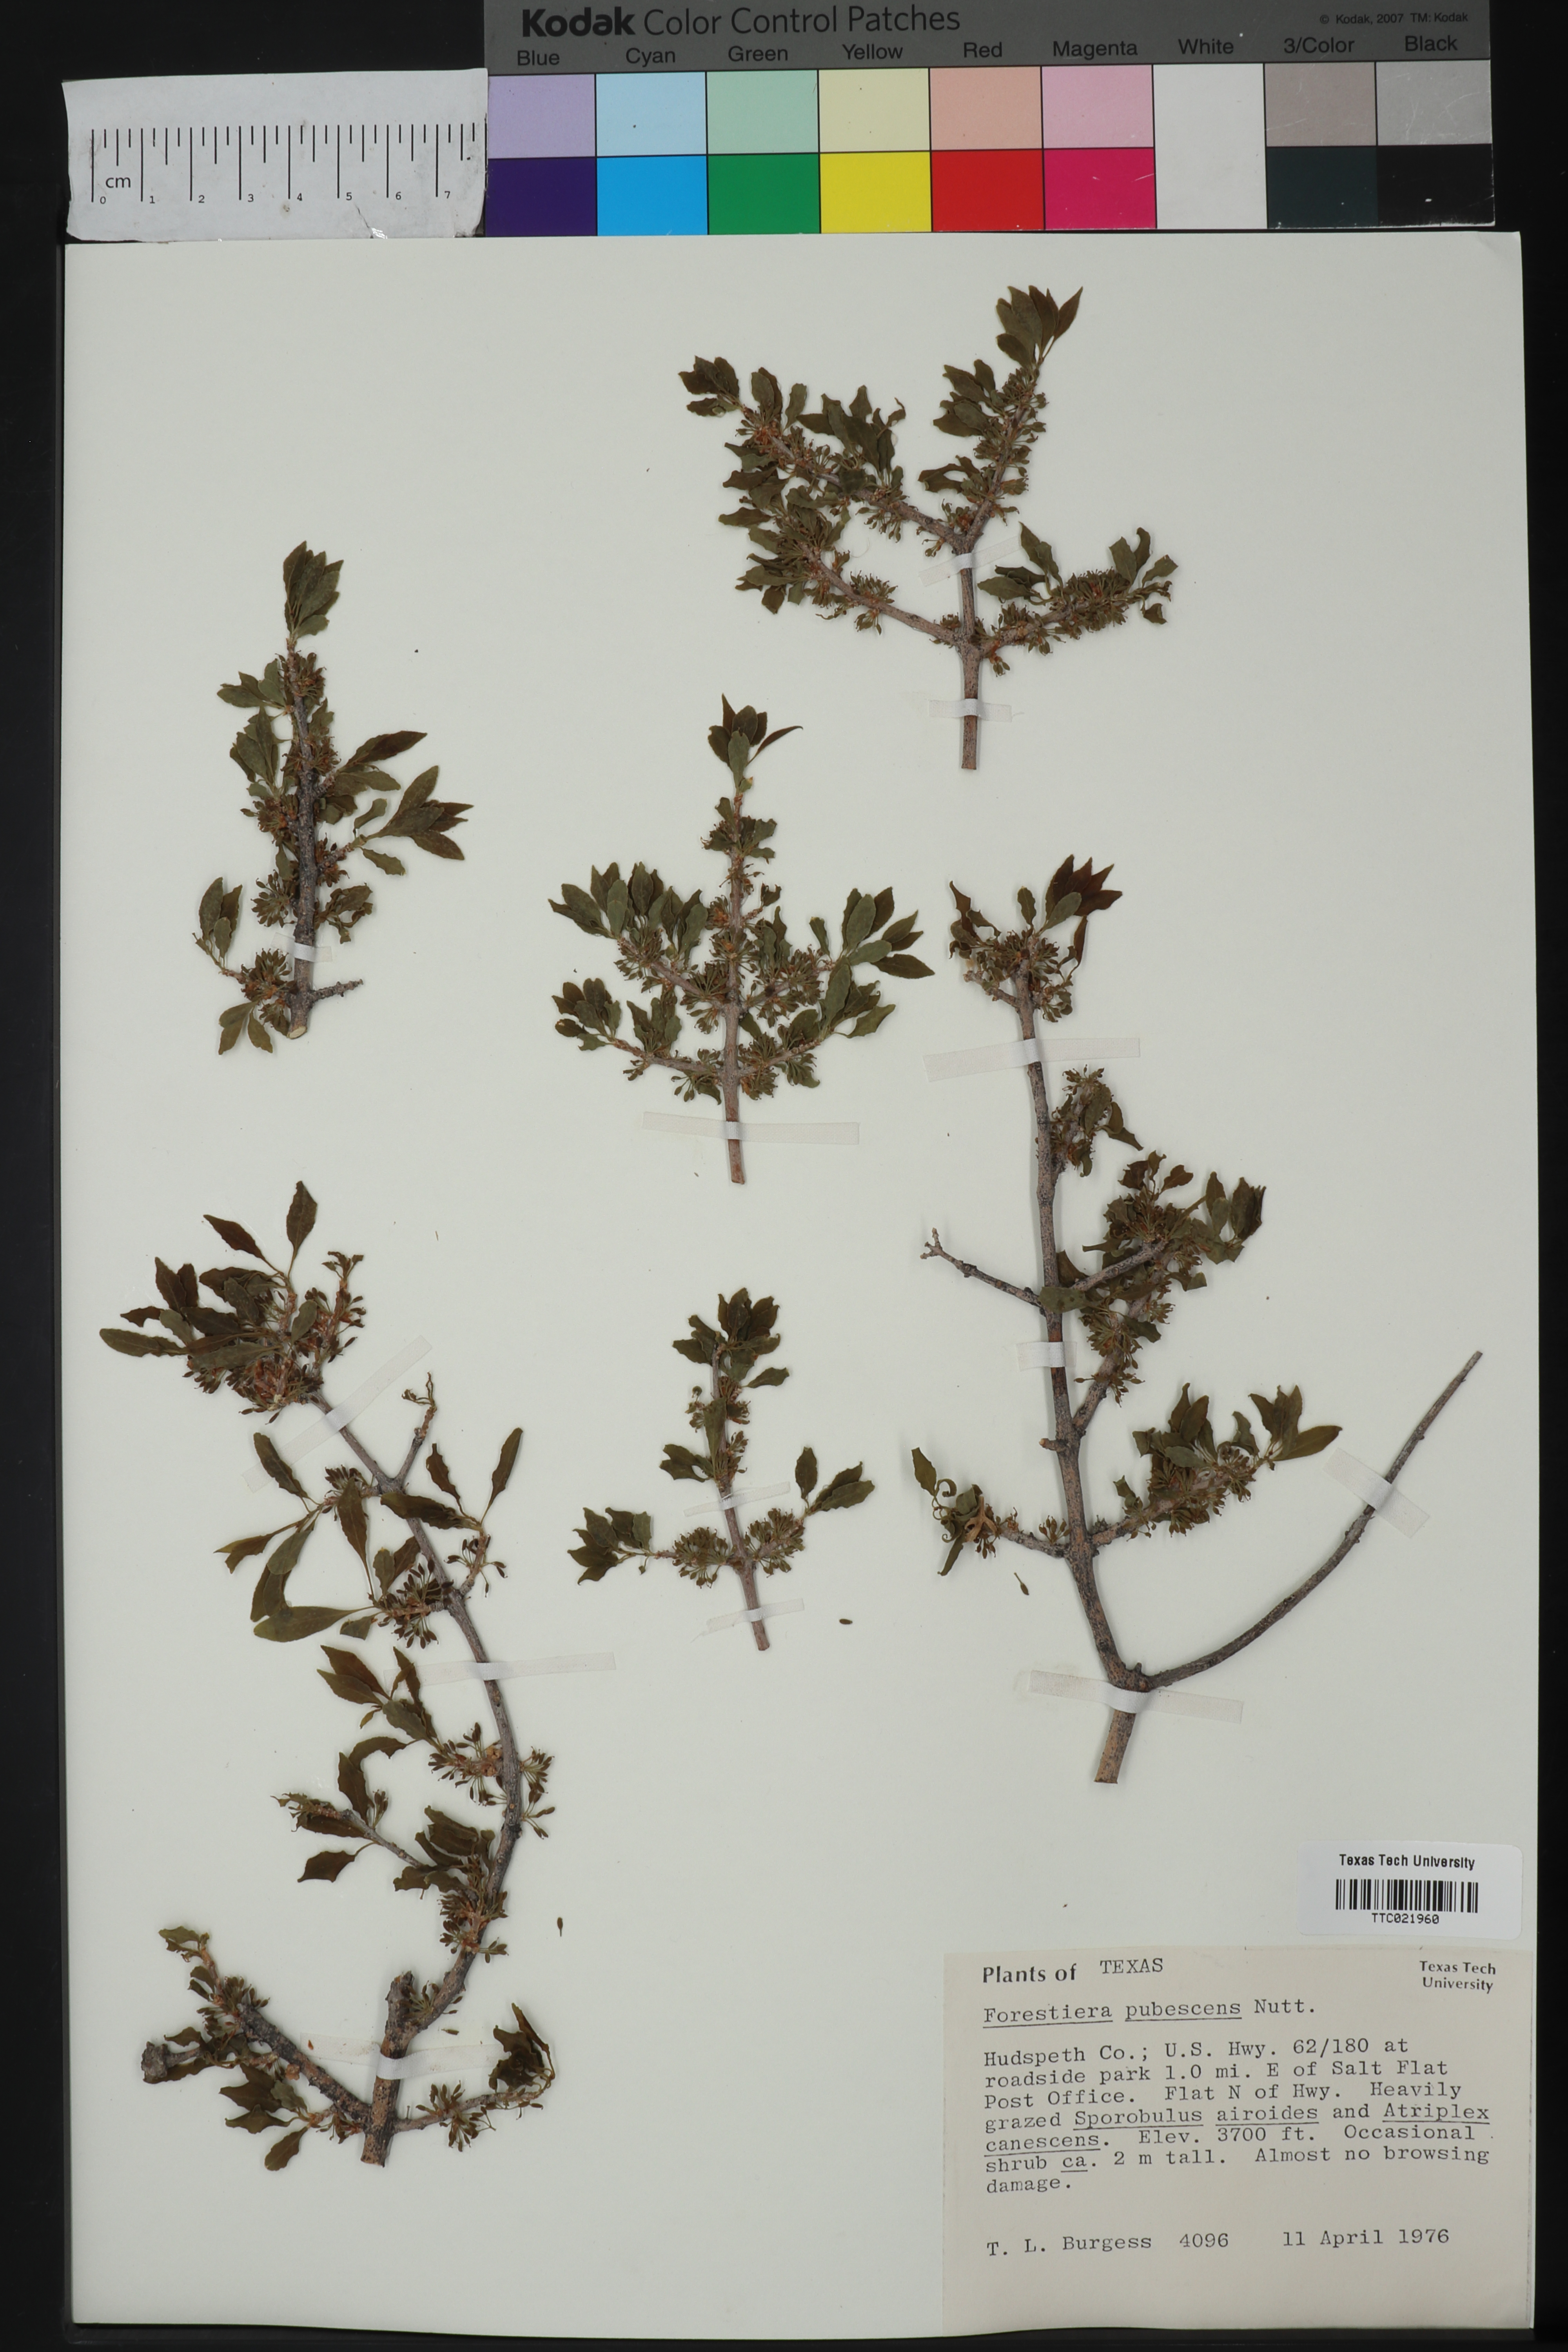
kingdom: Plantae
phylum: Tracheophyta
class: Magnoliopsida
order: Lamiales
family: Oleaceae
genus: Forestiera
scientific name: Forestiera pubescens
